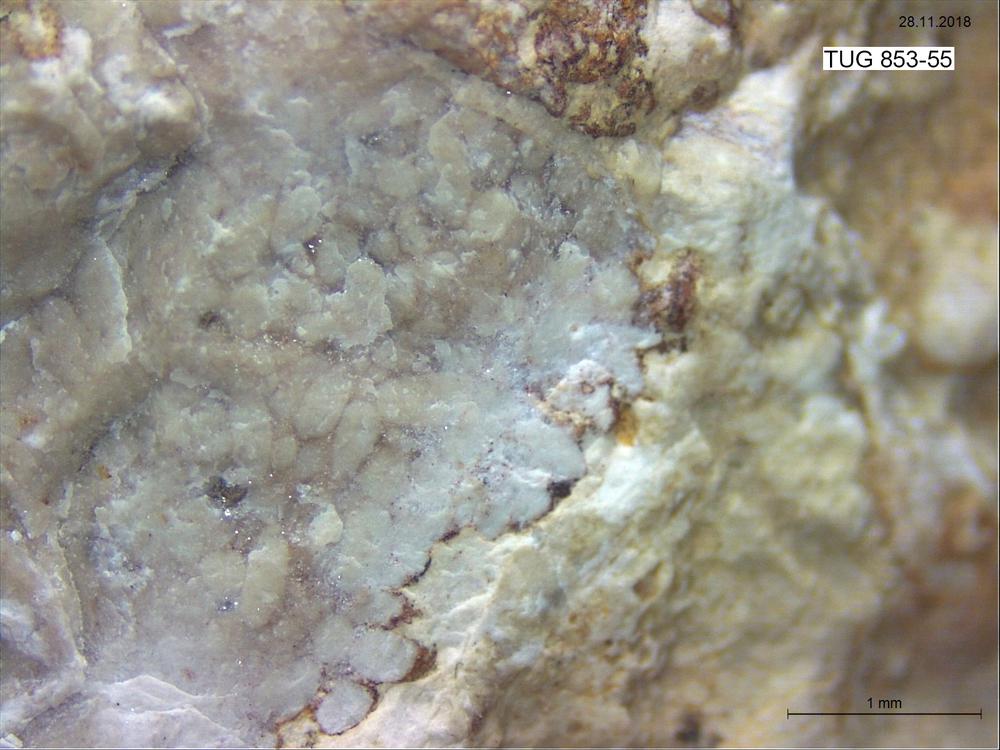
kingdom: Animalia
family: Coprulidae
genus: Coprulus
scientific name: Coprulus
